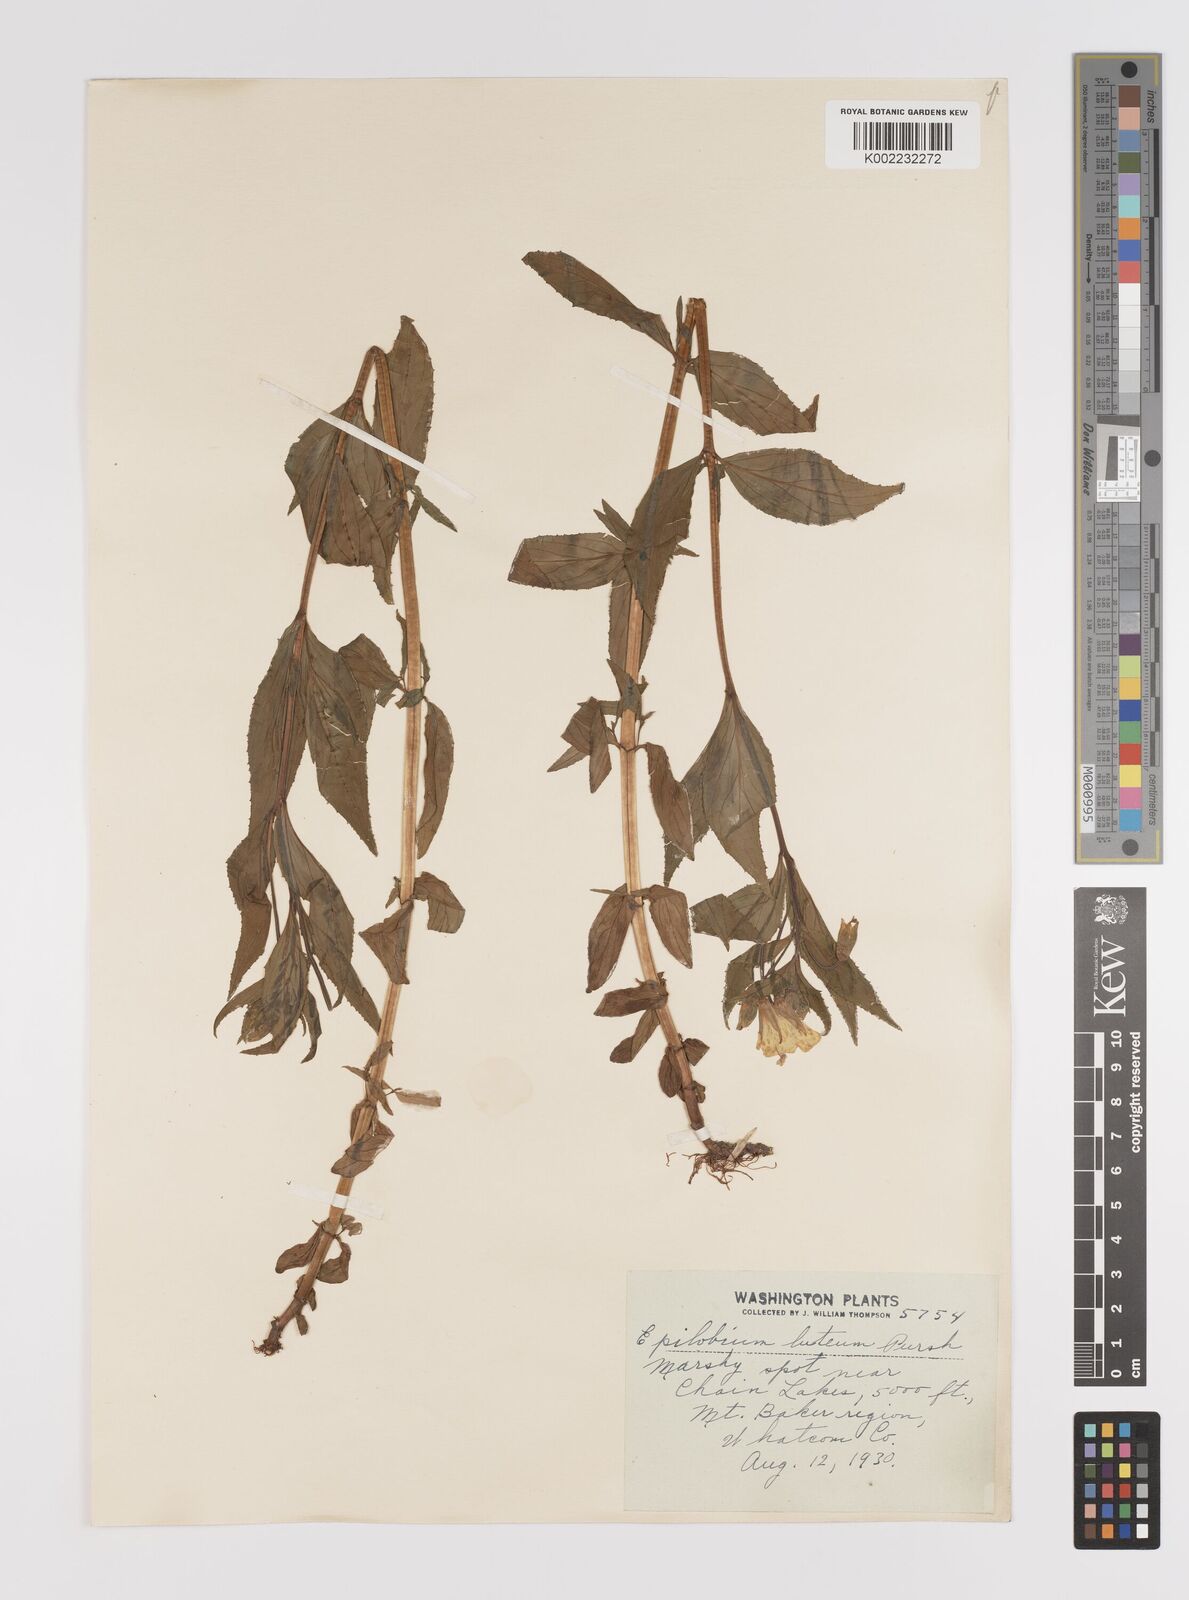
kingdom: Plantae
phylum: Tracheophyta
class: Magnoliopsida
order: Myrtales
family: Onagraceae
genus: Epilobium
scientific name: Epilobium luteum
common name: Yellow willowherb
